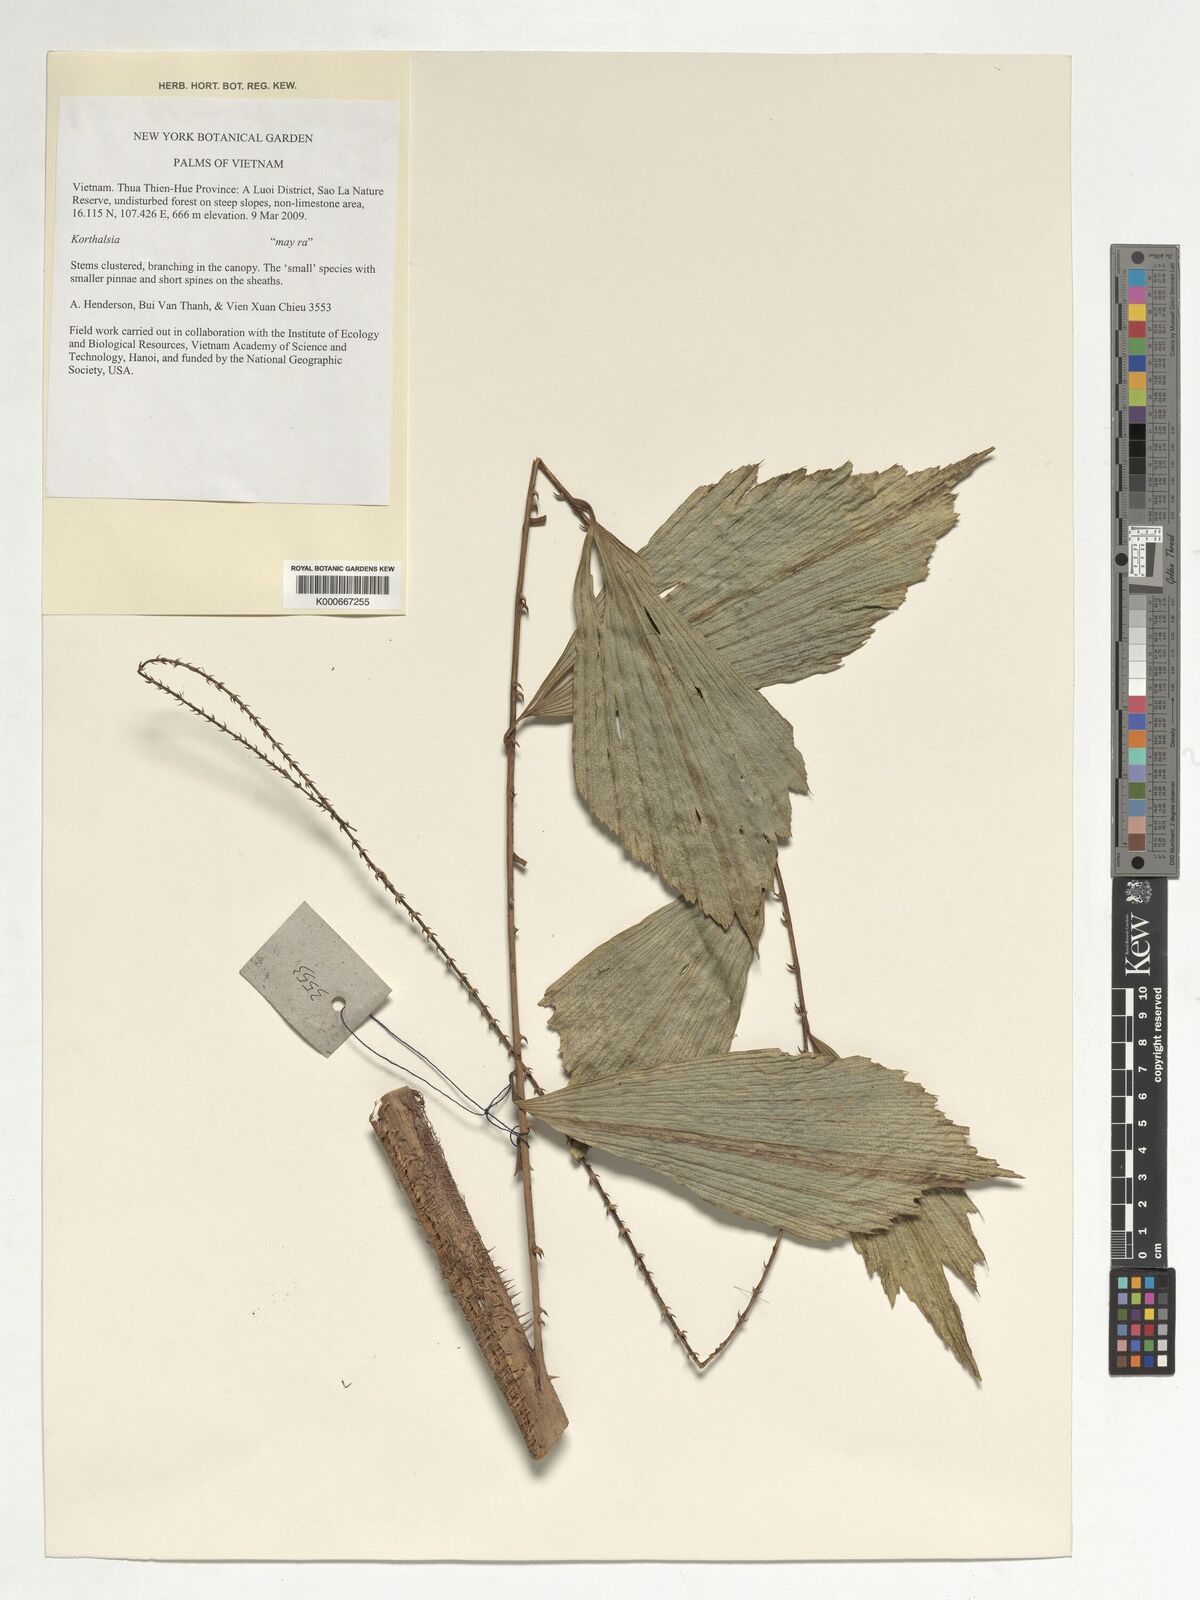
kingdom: Plantae
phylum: Tracheophyta
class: Liliopsida
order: Arecales
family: Arecaceae
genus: Korthalsia
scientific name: Korthalsia
